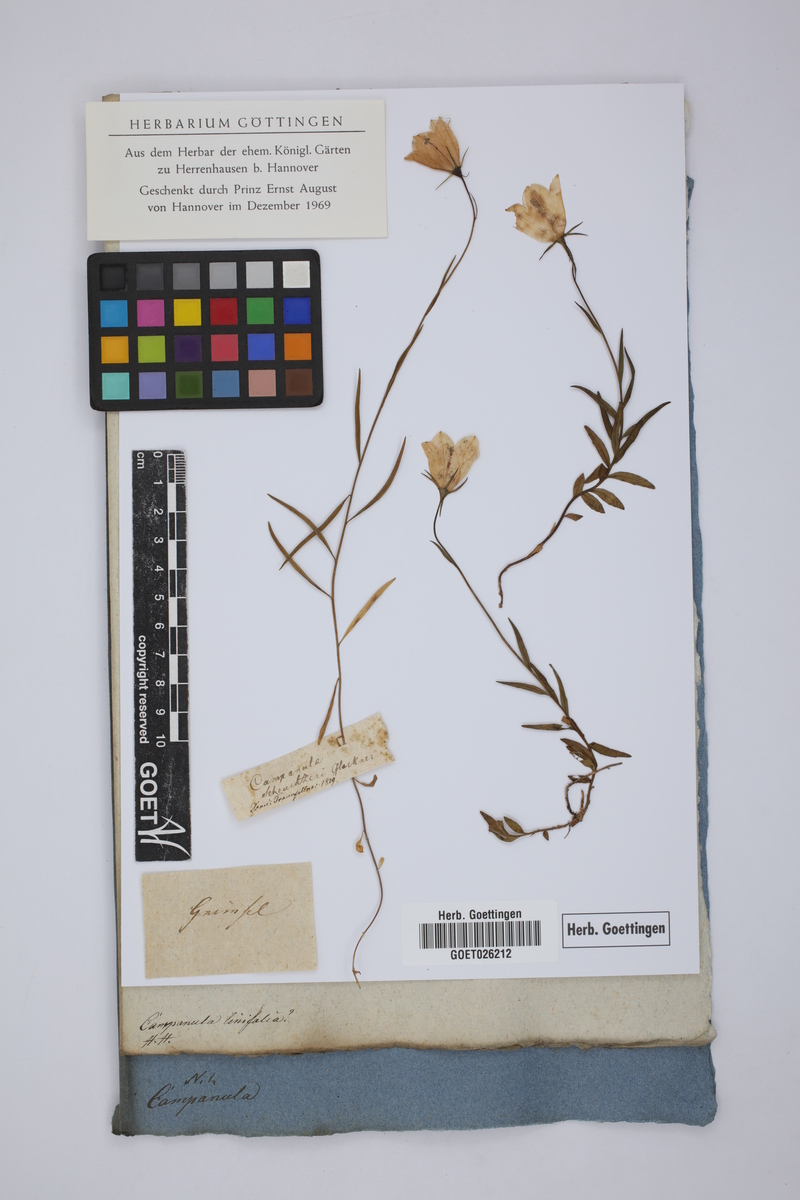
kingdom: Plantae
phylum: Tracheophyta
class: Magnoliopsida
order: Asterales
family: Campanulaceae
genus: Campanula
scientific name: Campanula scheuchzeri
